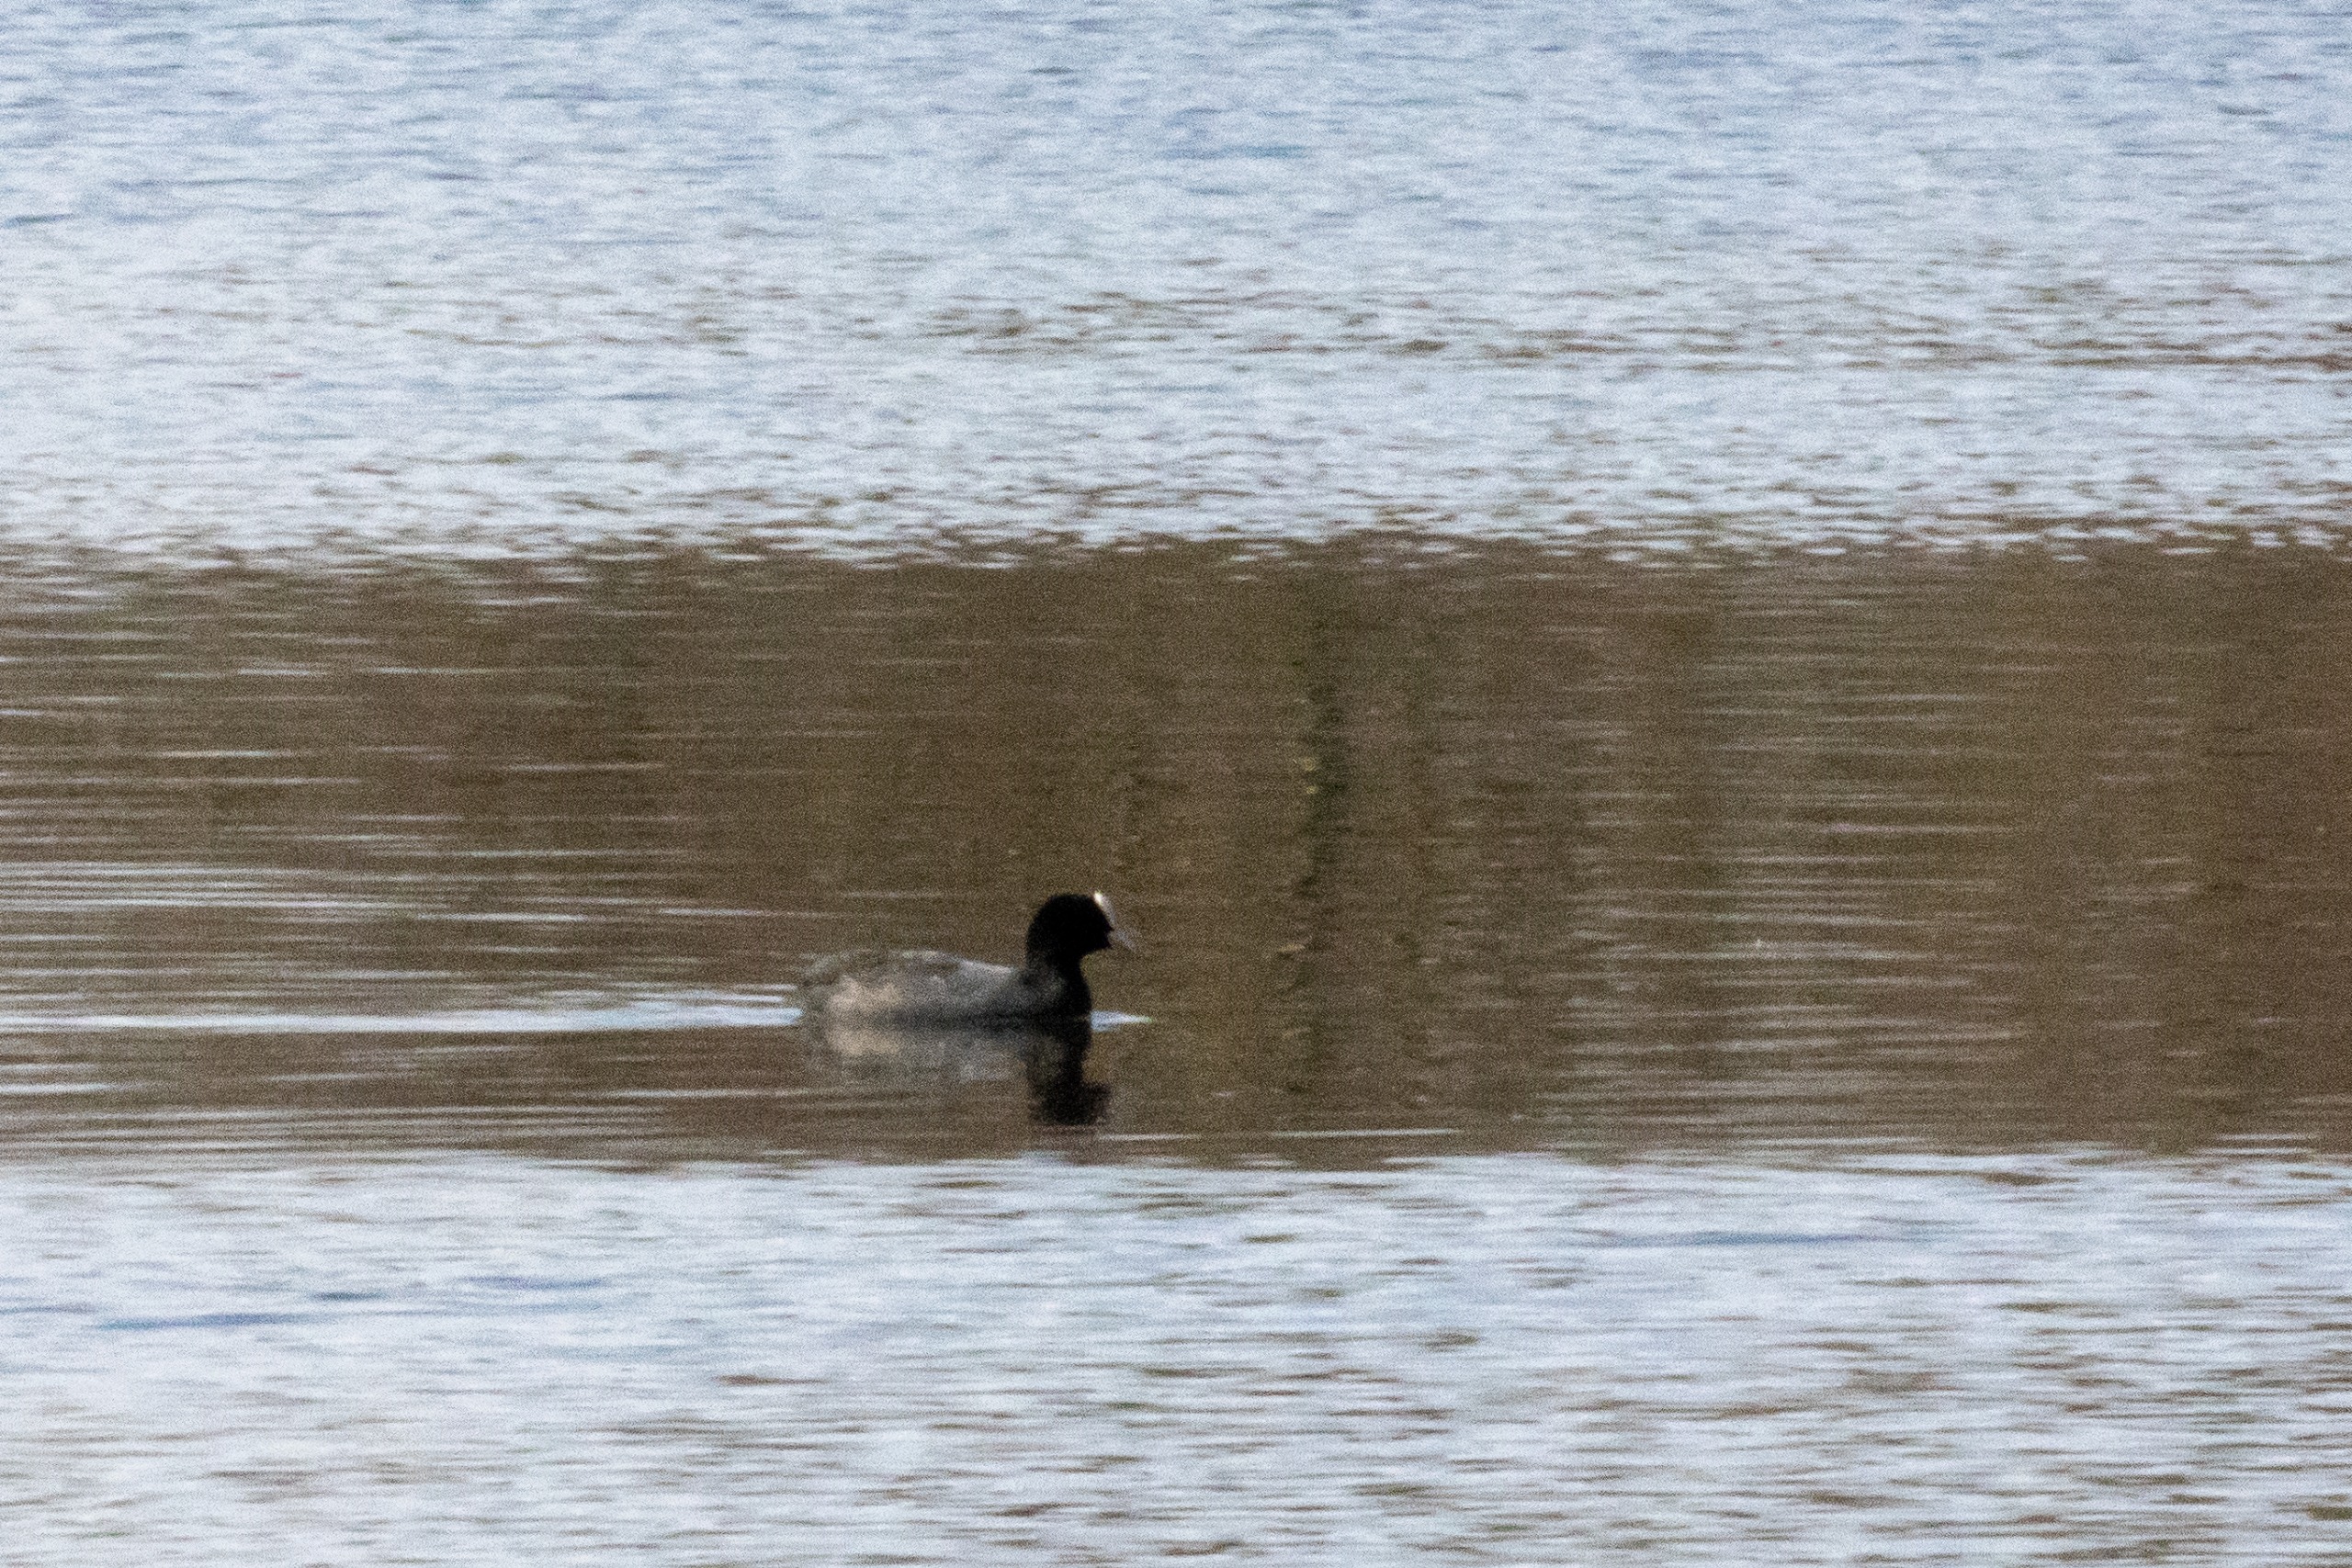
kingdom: Animalia
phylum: Chordata
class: Aves
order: Gruiformes
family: Rallidae
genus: Fulica
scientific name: Fulica atra
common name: Blishøne
